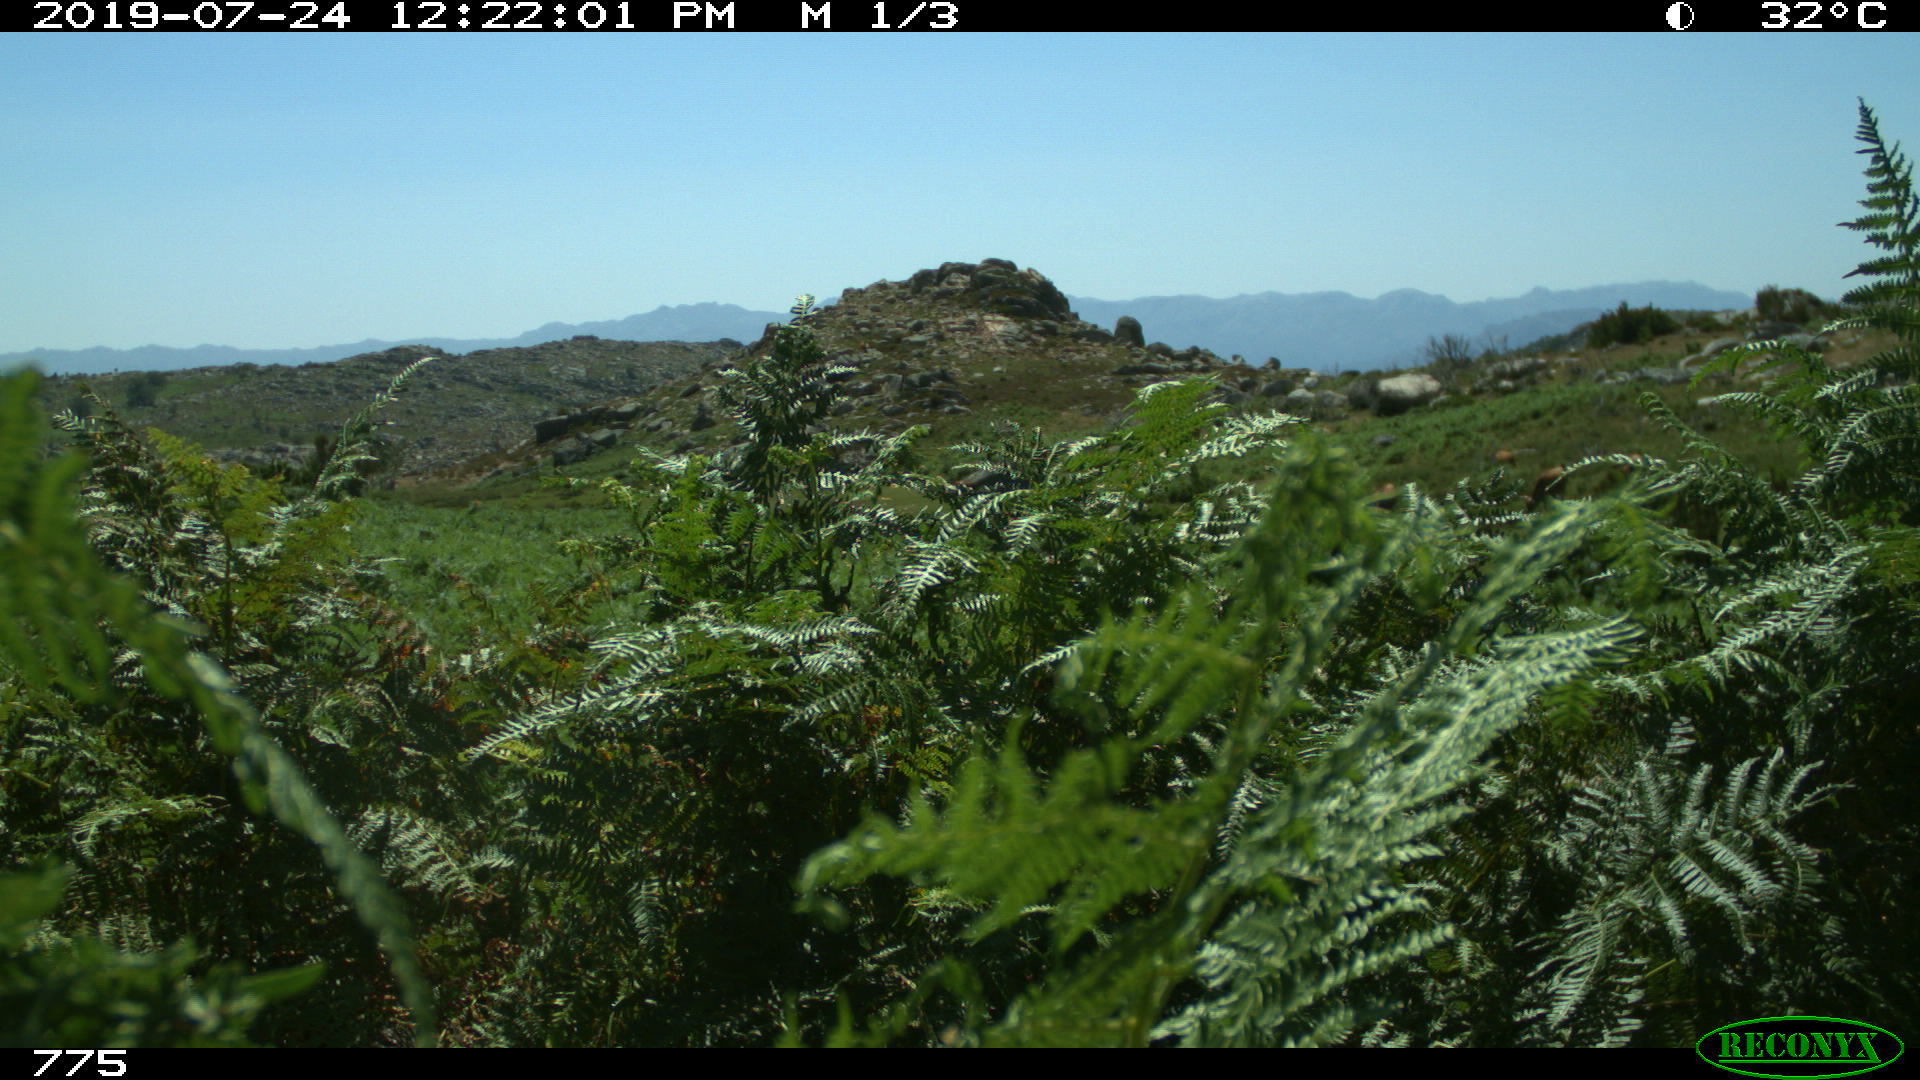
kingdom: Animalia
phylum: Chordata
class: Mammalia
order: Artiodactyla
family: Bovidae
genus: Bos
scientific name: Bos taurus
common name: Domesticated cattle
